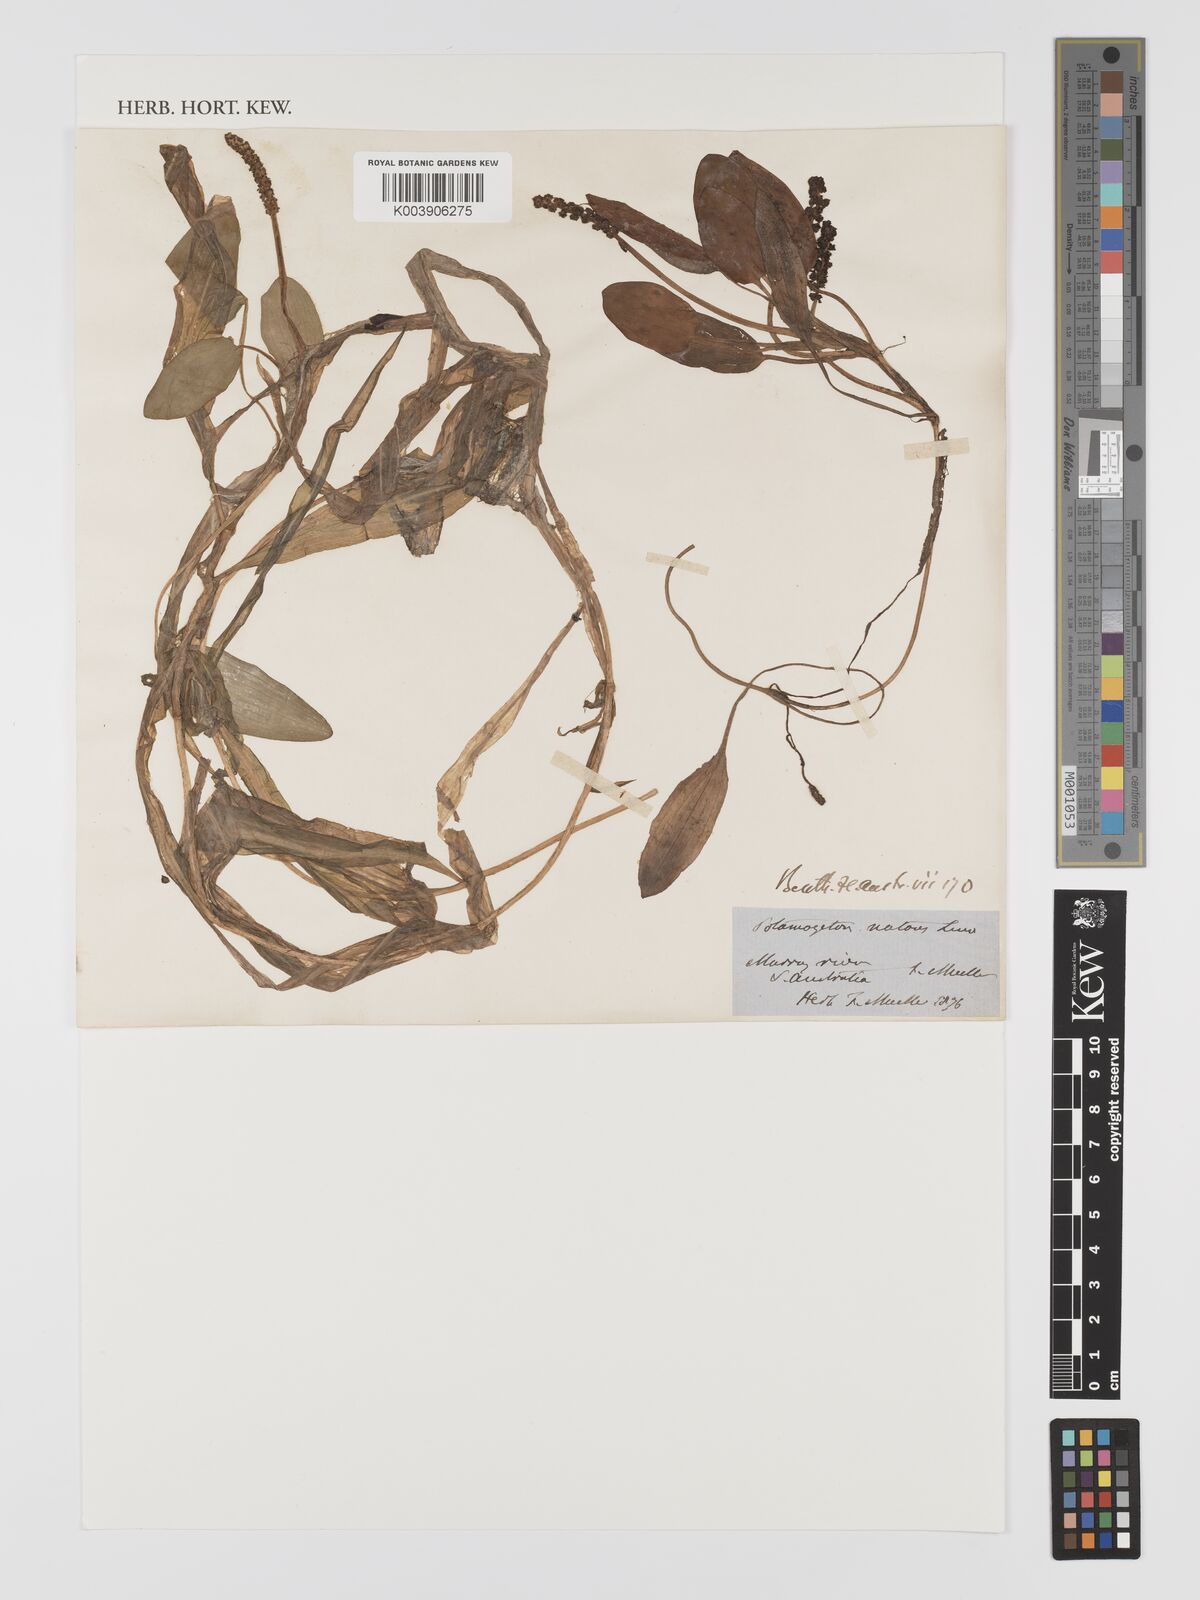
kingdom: Plantae
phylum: Tracheophyta
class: Liliopsida
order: Alismatales
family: Potamogetonaceae
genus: Potamogeton
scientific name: Potamogeton cheesemanii
